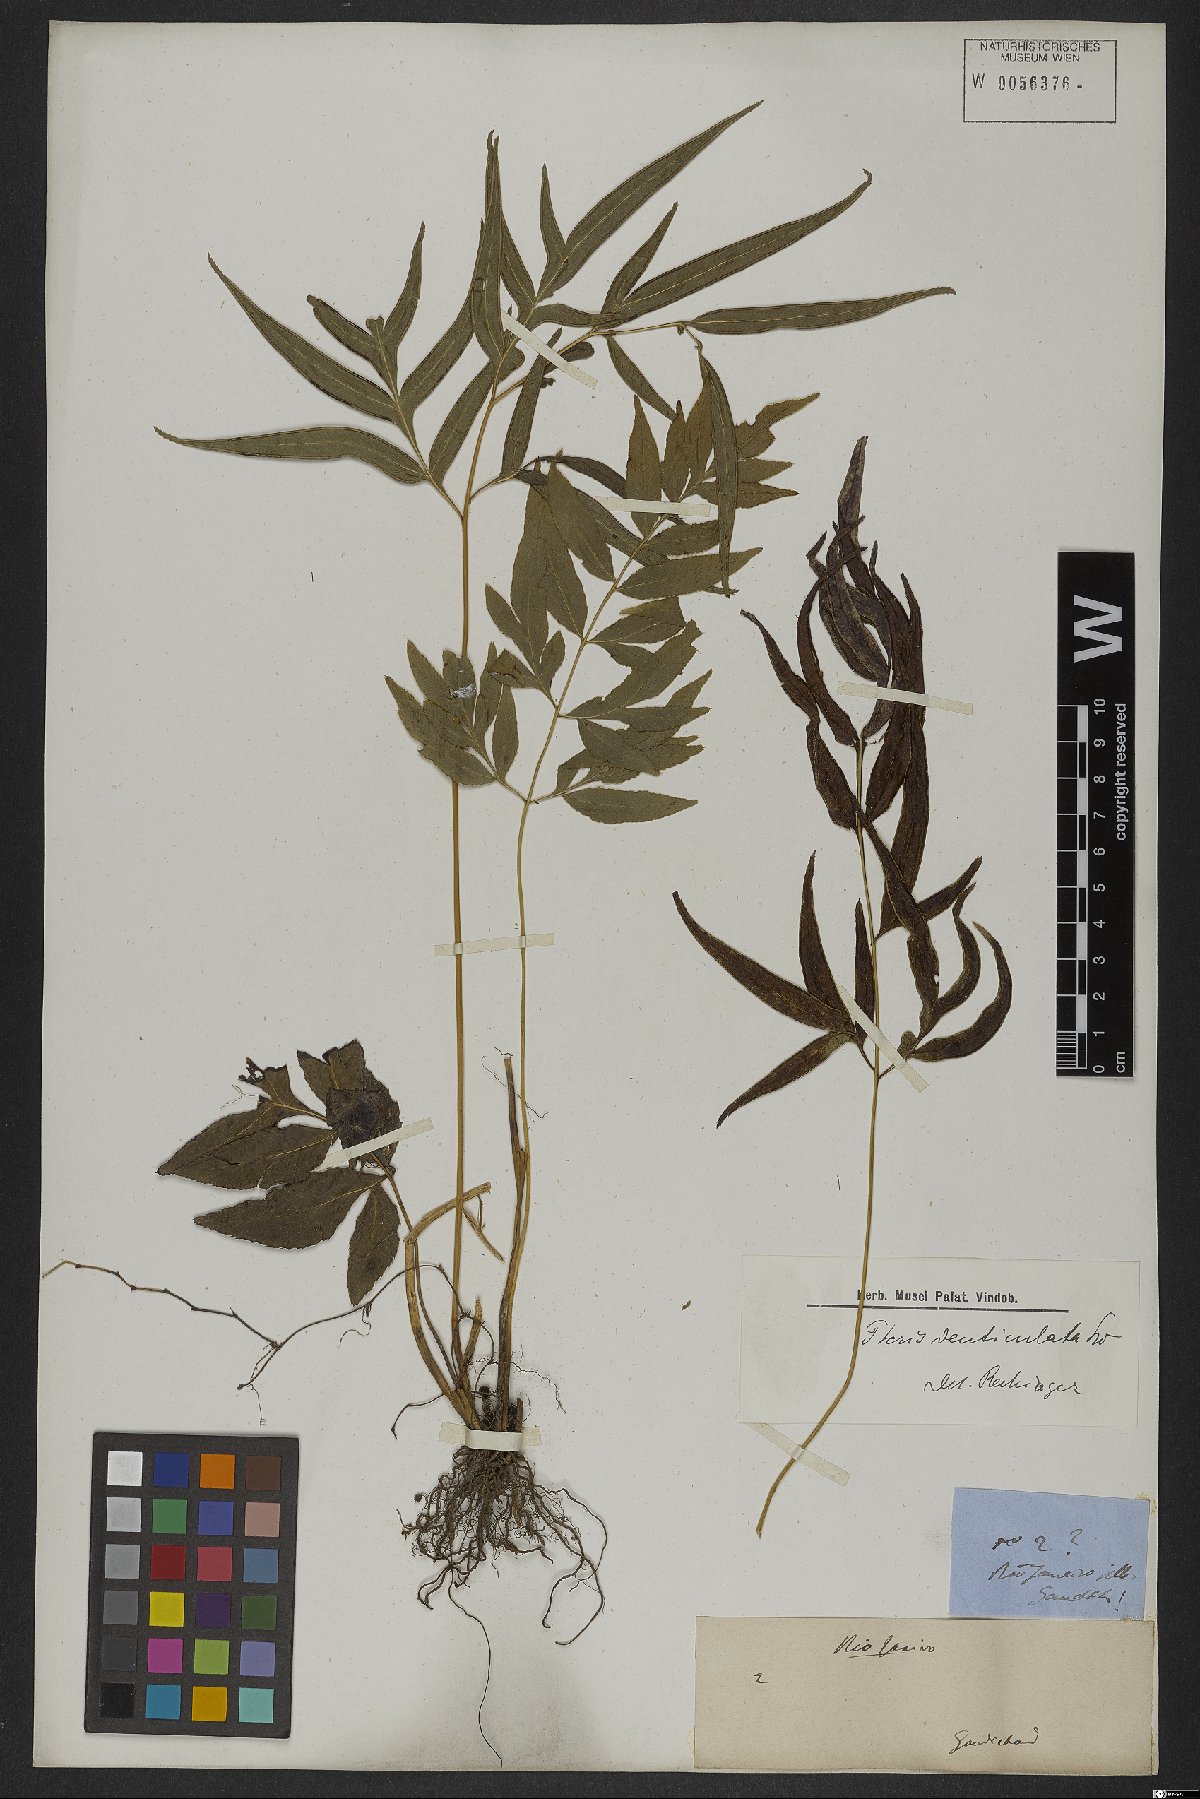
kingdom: Plantae
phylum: Tracheophyta
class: Polypodiopsida
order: Polypodiales
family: Pteridaceae
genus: Pteris
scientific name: Pteris denticulata
